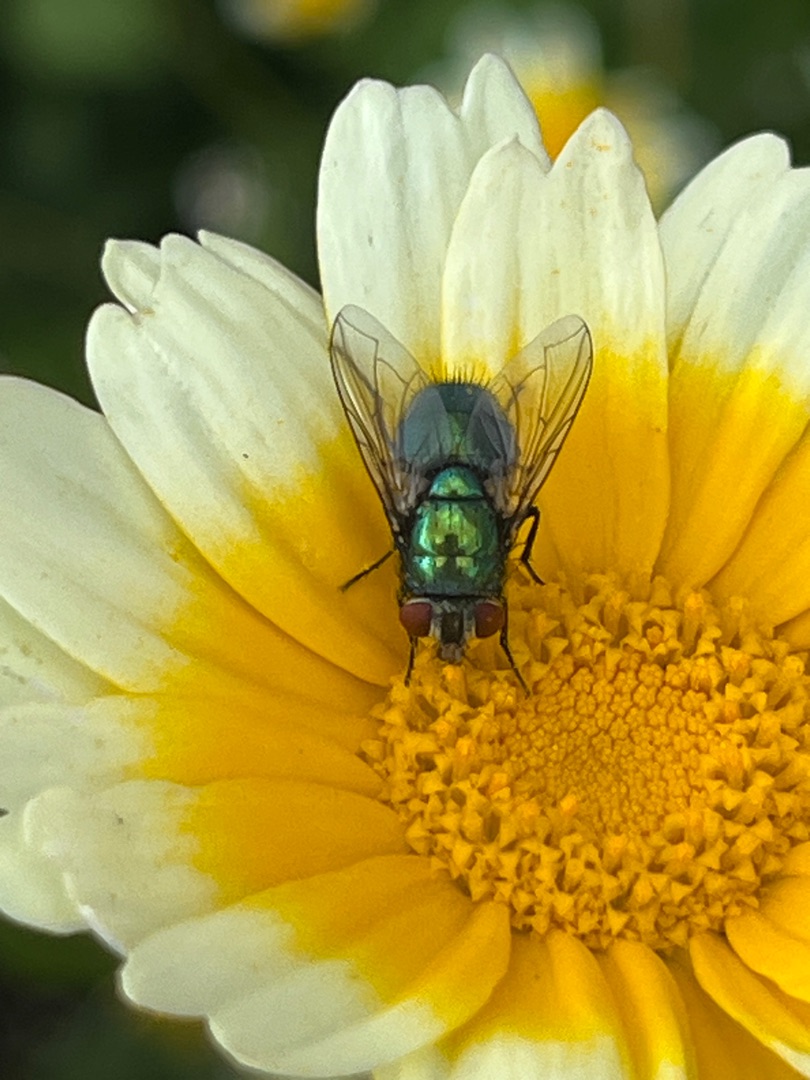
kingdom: Animalia
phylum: Arthropoda
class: Insecta
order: Diptera
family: Calliphoridae
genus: Lucilia
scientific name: Lucilia
